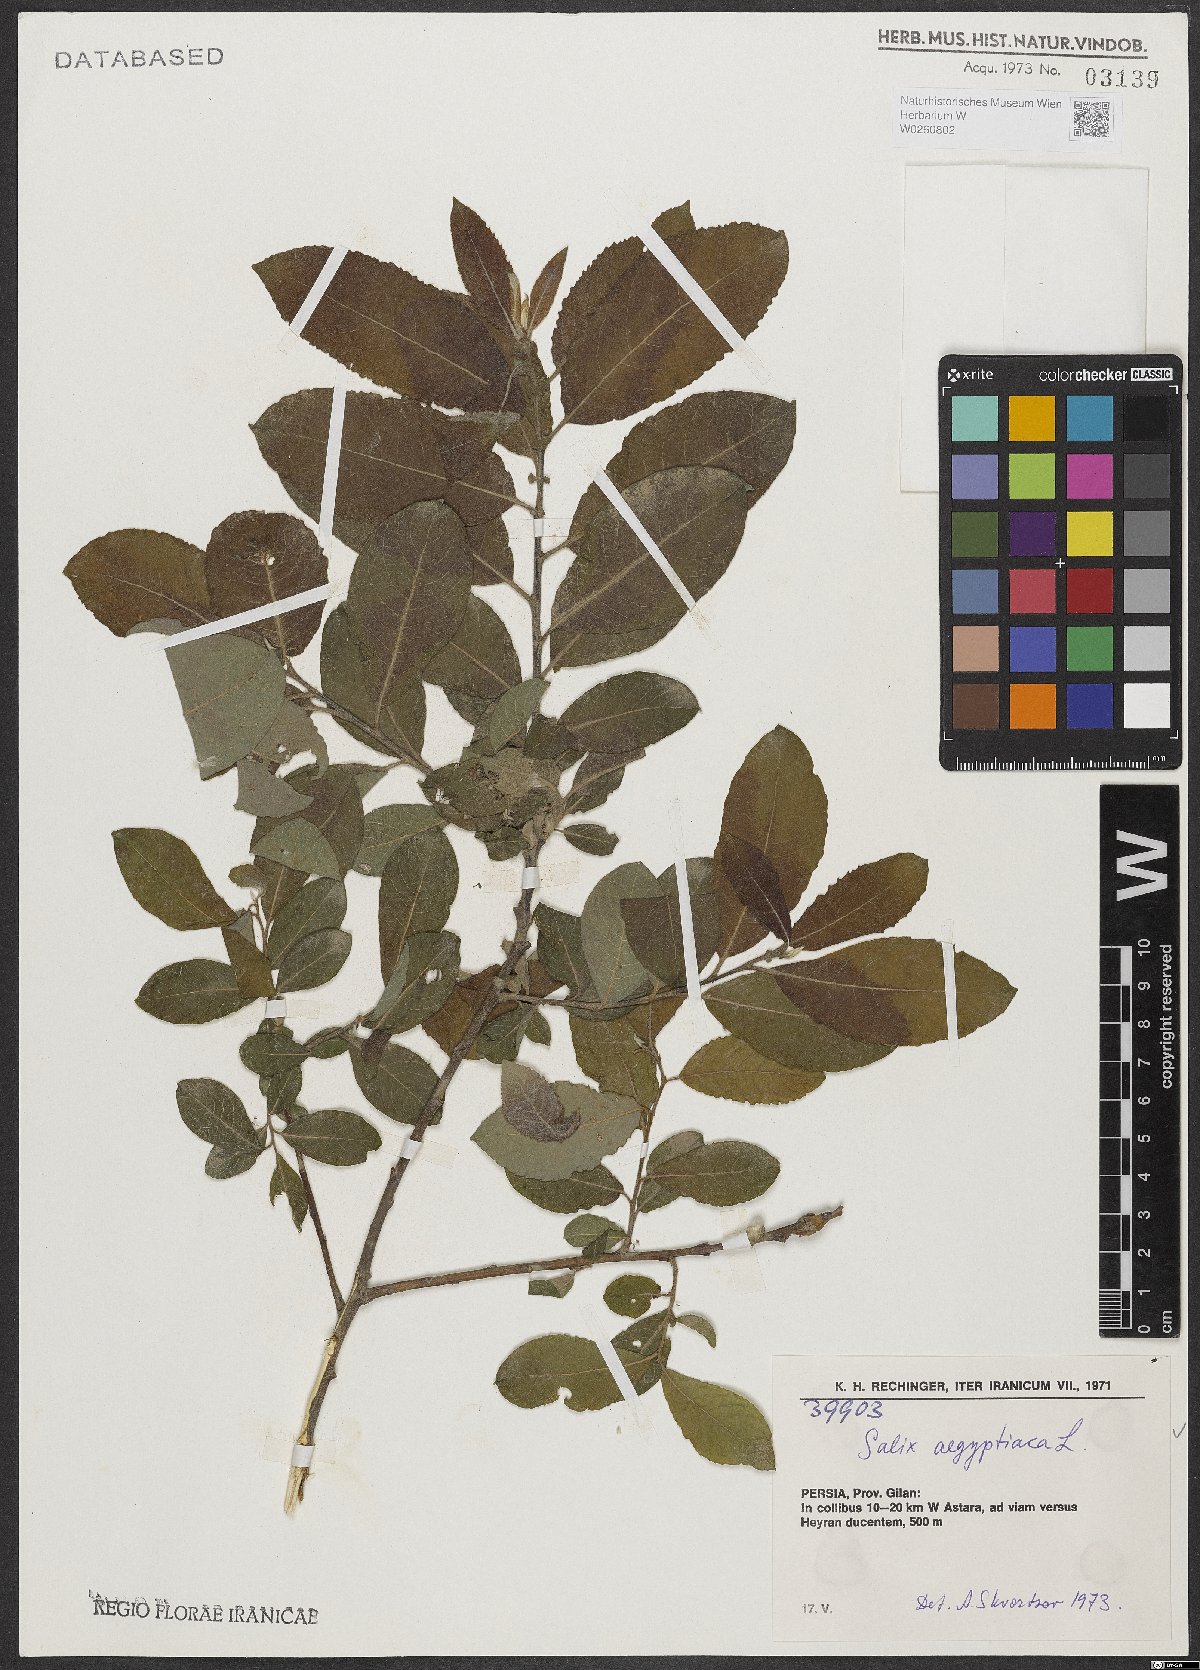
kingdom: Plantae
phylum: Tracheophyta
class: Magnoliopsida
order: Malpighiales
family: Salicaceae
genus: Salix
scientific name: Salix aegyptiaca
